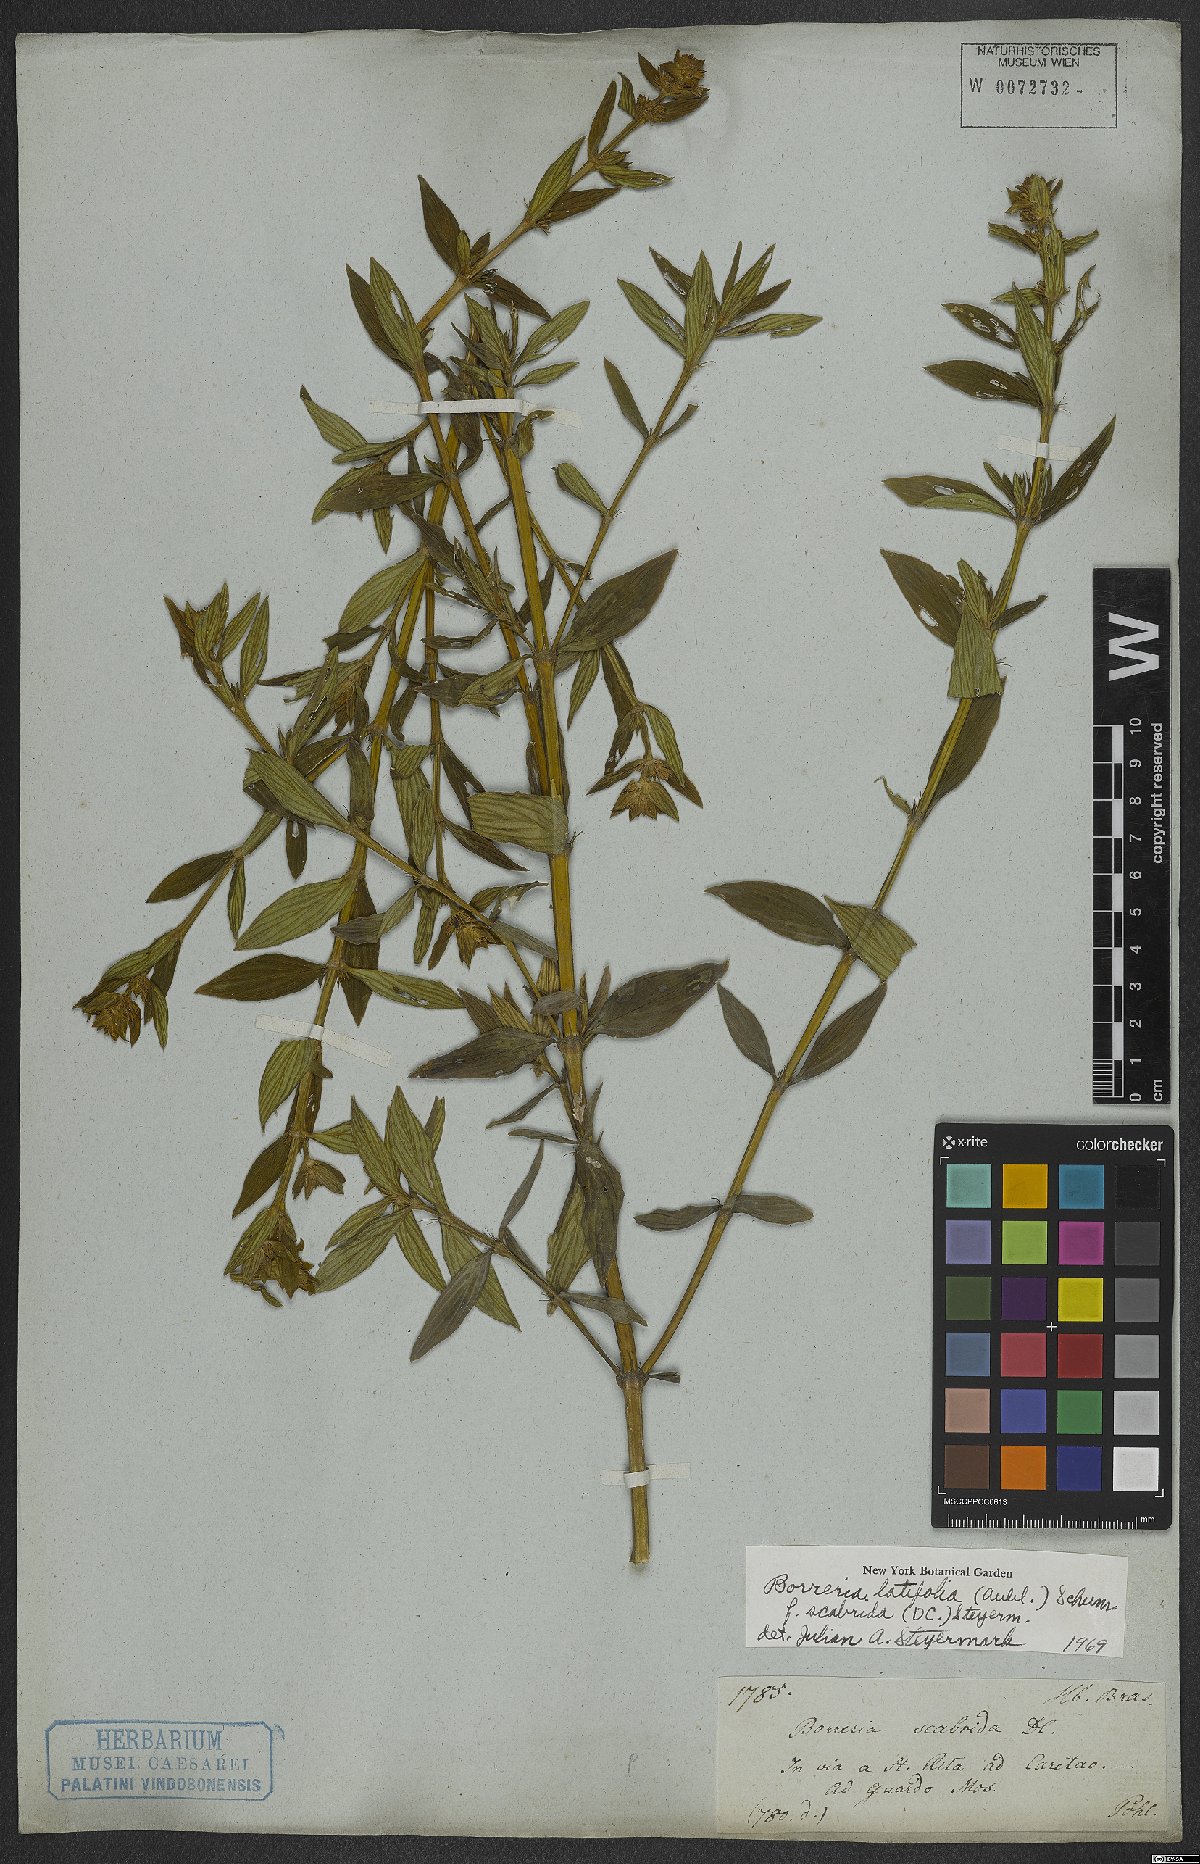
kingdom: Plantae
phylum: Tracheophyta
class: Magnoliopsida
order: Gentianales
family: Rubiaceae
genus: Spermacoce
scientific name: Spermacoce latifolia
